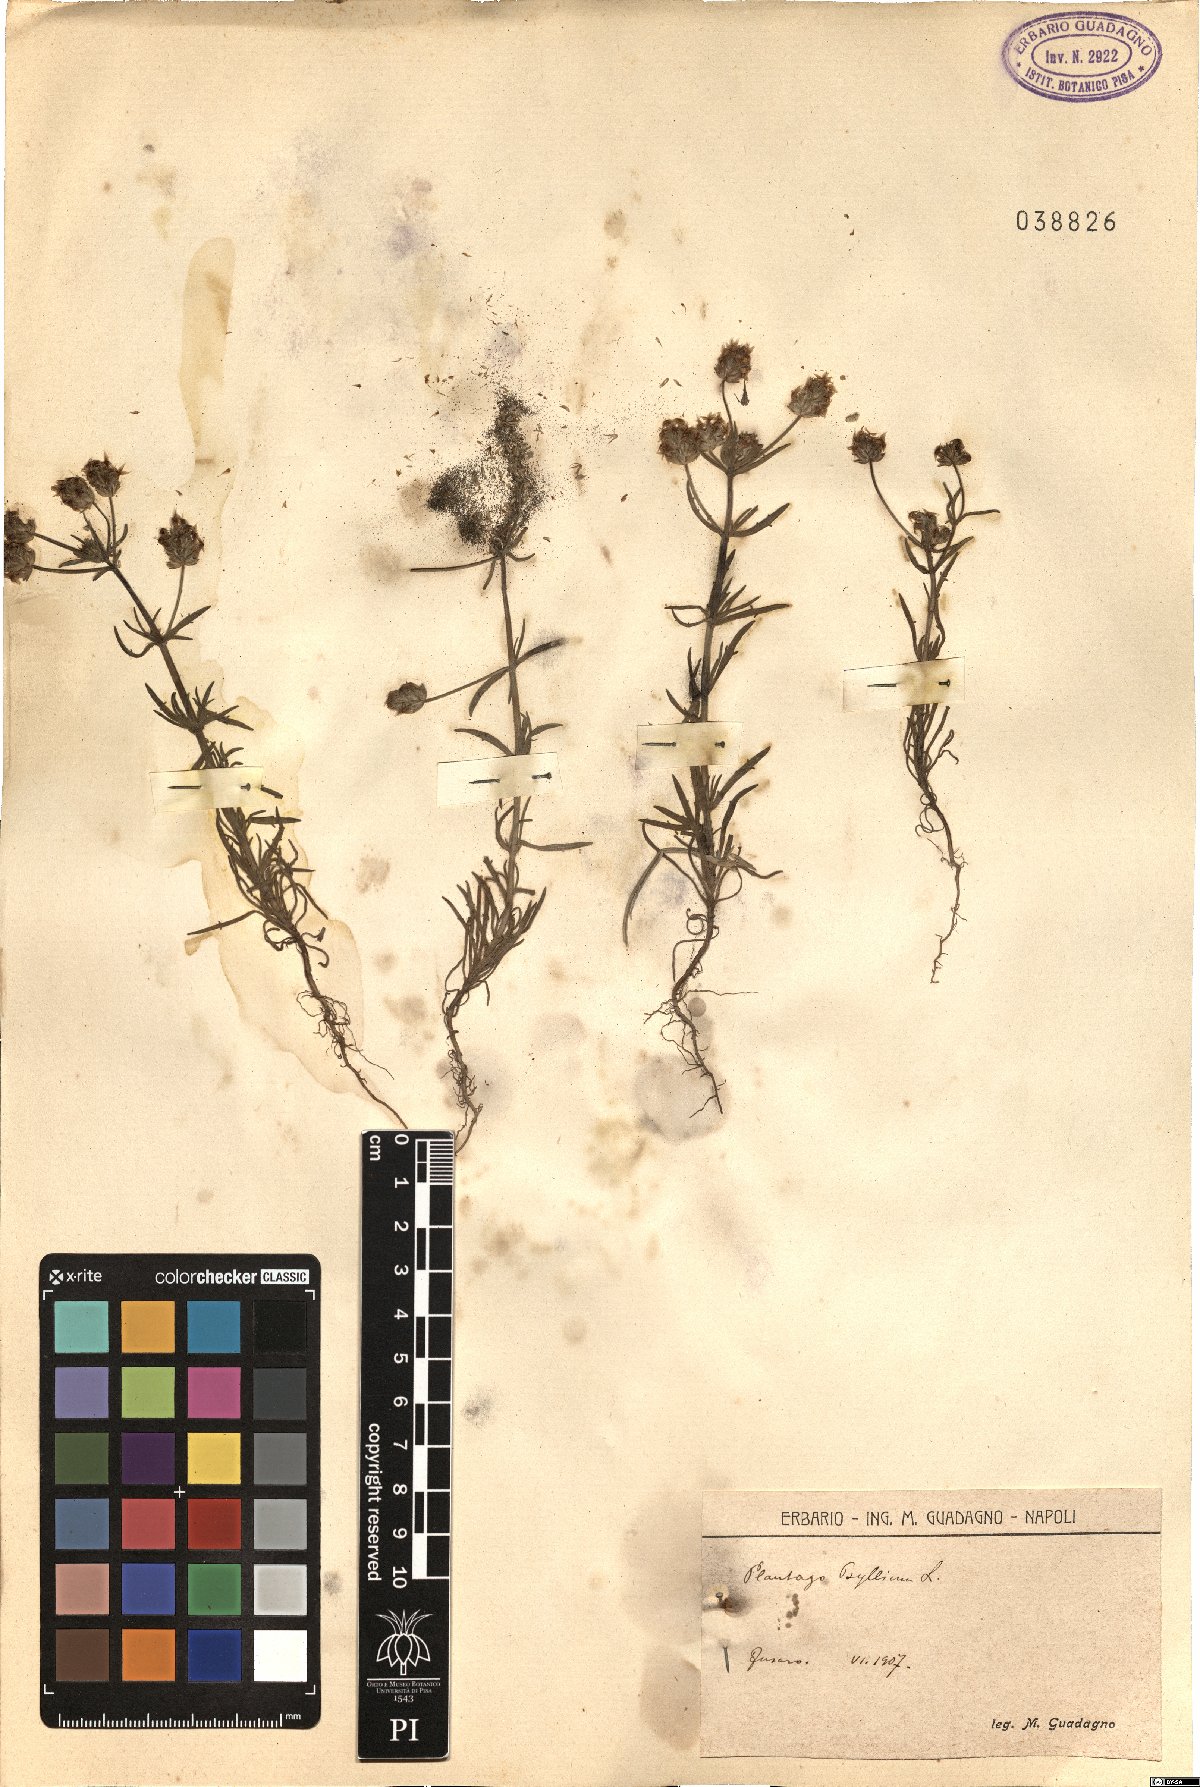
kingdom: Plantae
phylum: Tracheophyta
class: Magnoliopsida
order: Lamiales
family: Plantaginaceae
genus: Plantago
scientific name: Plantago
